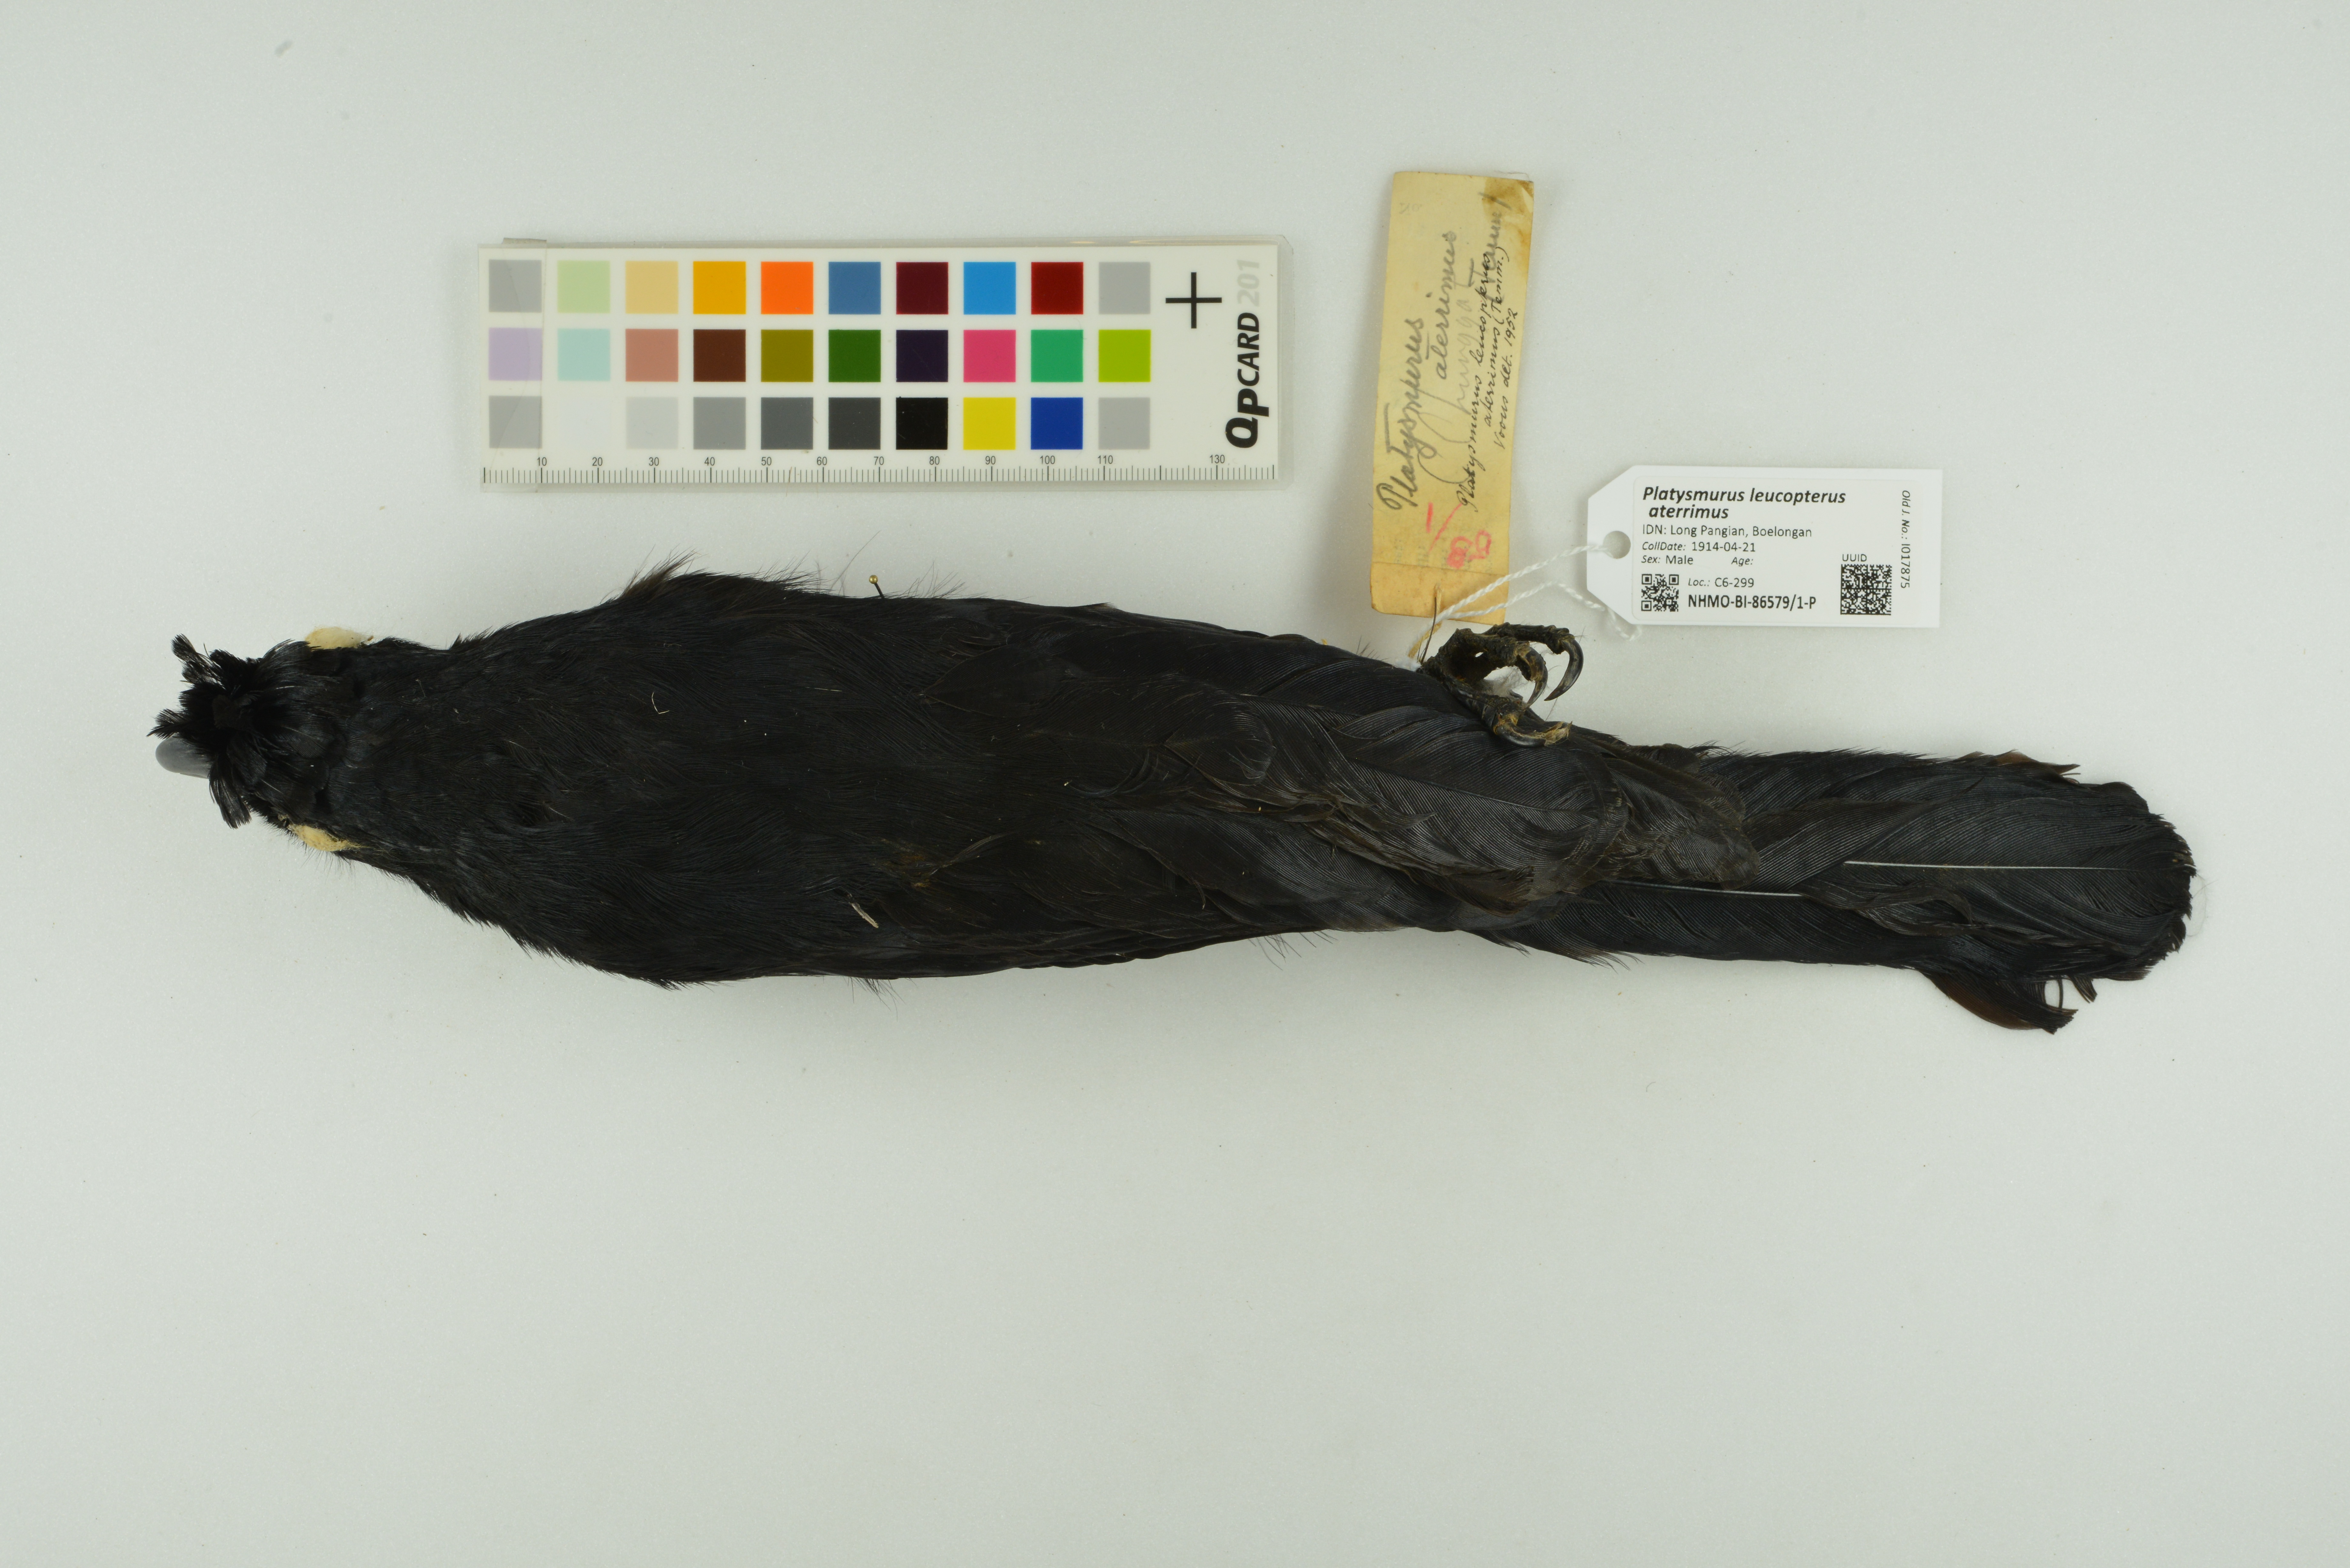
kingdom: Animalia
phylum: Chordata
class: Aves
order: Passeriformes
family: Corvidae
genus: Platysmurus
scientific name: Platysmurus leucopterus
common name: Black magpie
